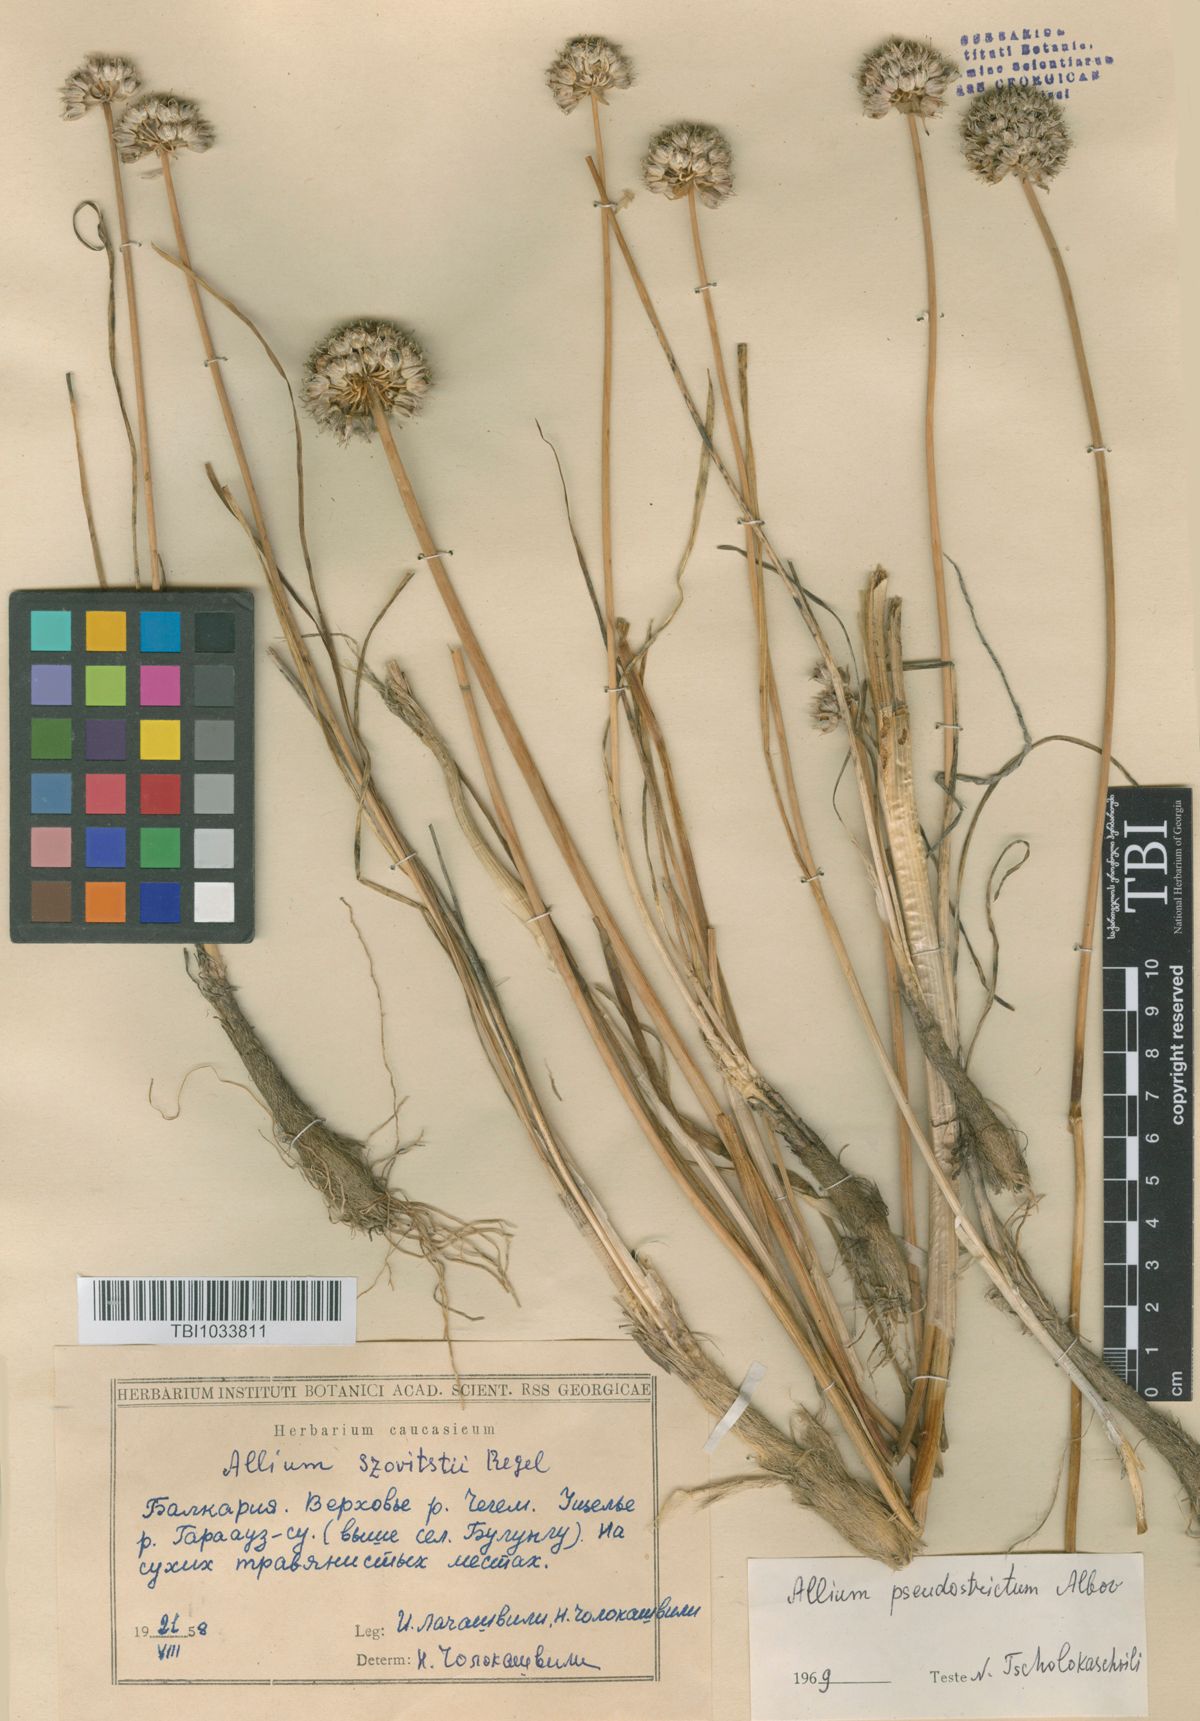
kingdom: Plantae
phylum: Tracheophyta
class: Liliopsida
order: Asparagales
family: Amaryllidaceae
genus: Allium
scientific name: Allium pseudostrictum
